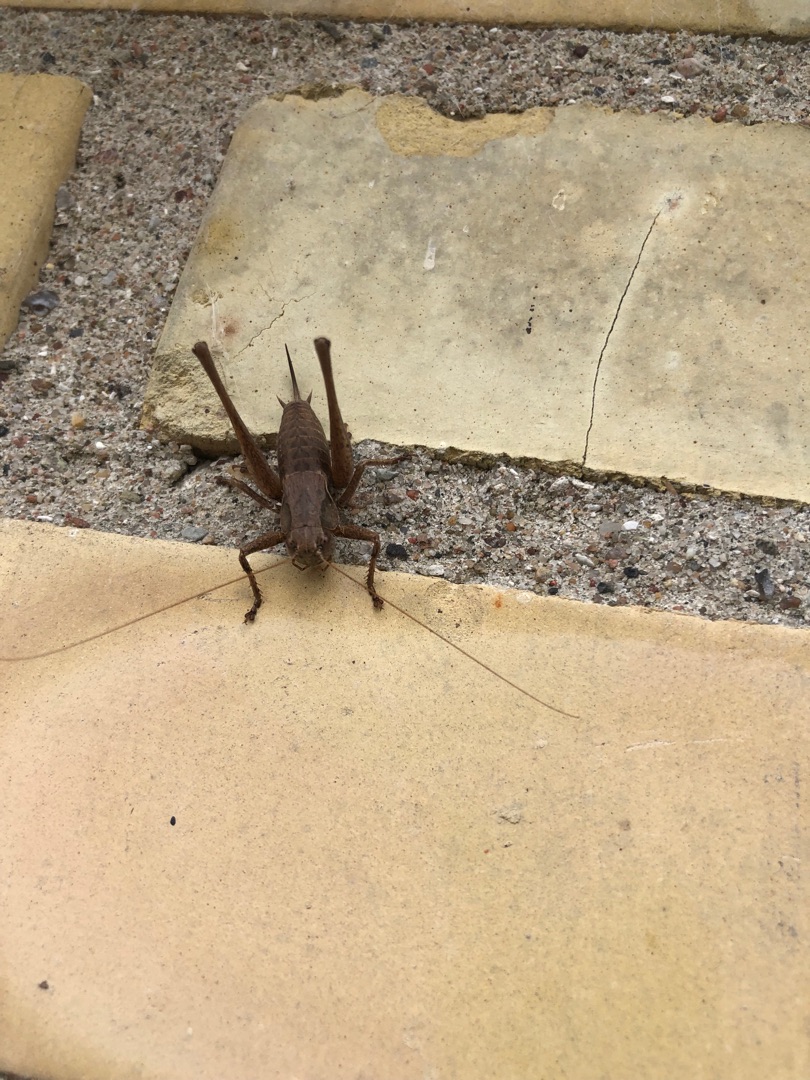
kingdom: Animalia
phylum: Arthropoda
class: Insecta
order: Orthoptera
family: Tettigoniidae
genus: Pholidoptera
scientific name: Pholidoptera griseoaptera
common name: Buskgræshoppe
